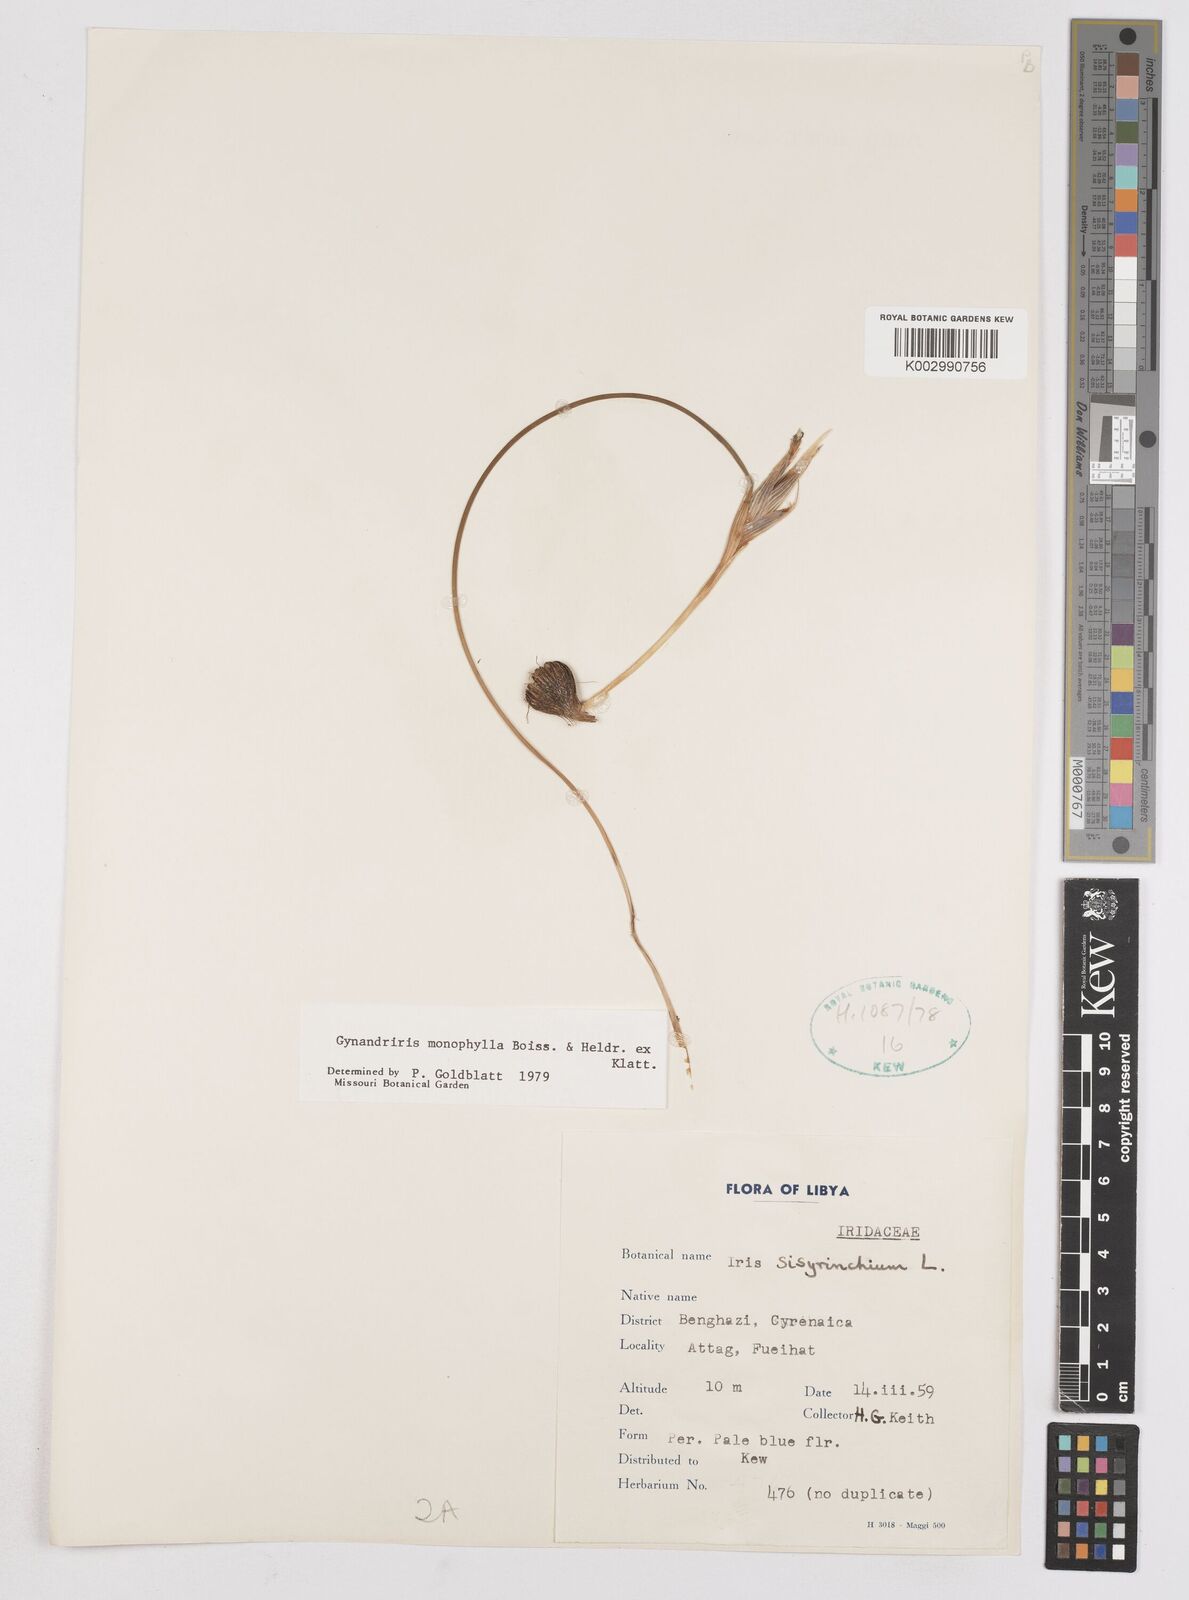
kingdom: Plantae
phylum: Tracheophyta
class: Liliopsida
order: Asparagales
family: Iridaceae
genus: Moraea
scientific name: Moraea punctata
